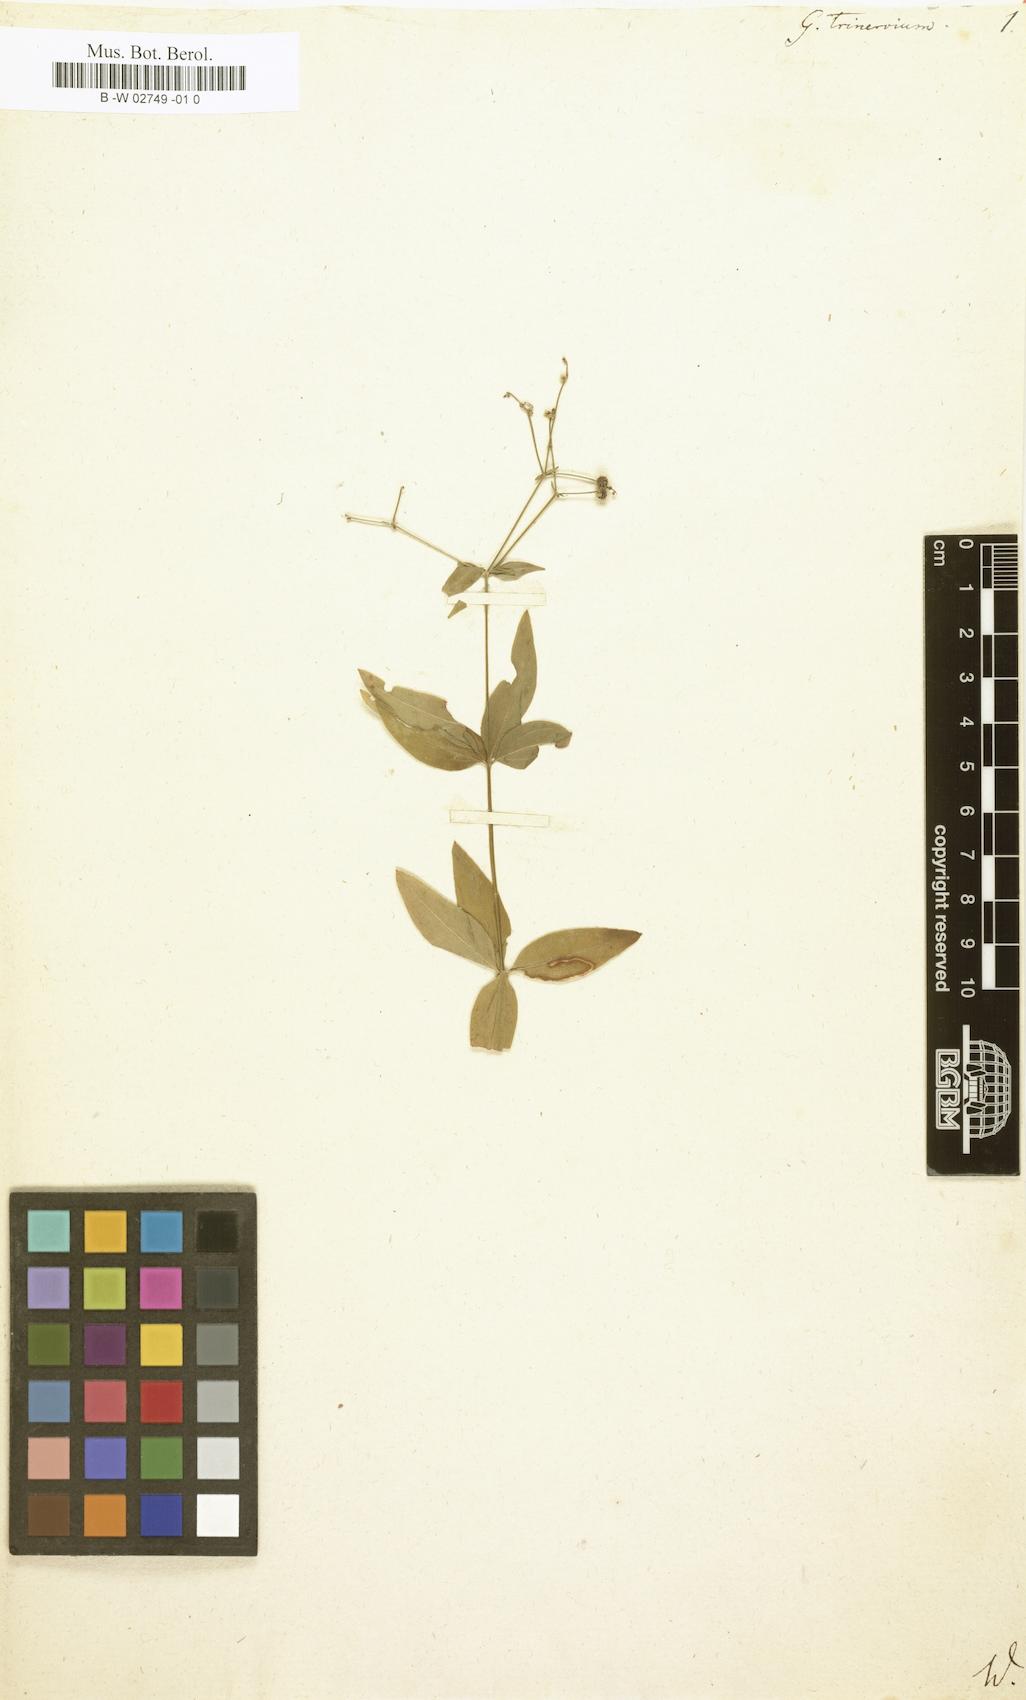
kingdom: Plantae
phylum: Tracheophyta
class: Magnoliopsida
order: Gentianales
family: Rubiaceae
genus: Galium
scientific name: Galium boreale
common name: Northern bedstraw
